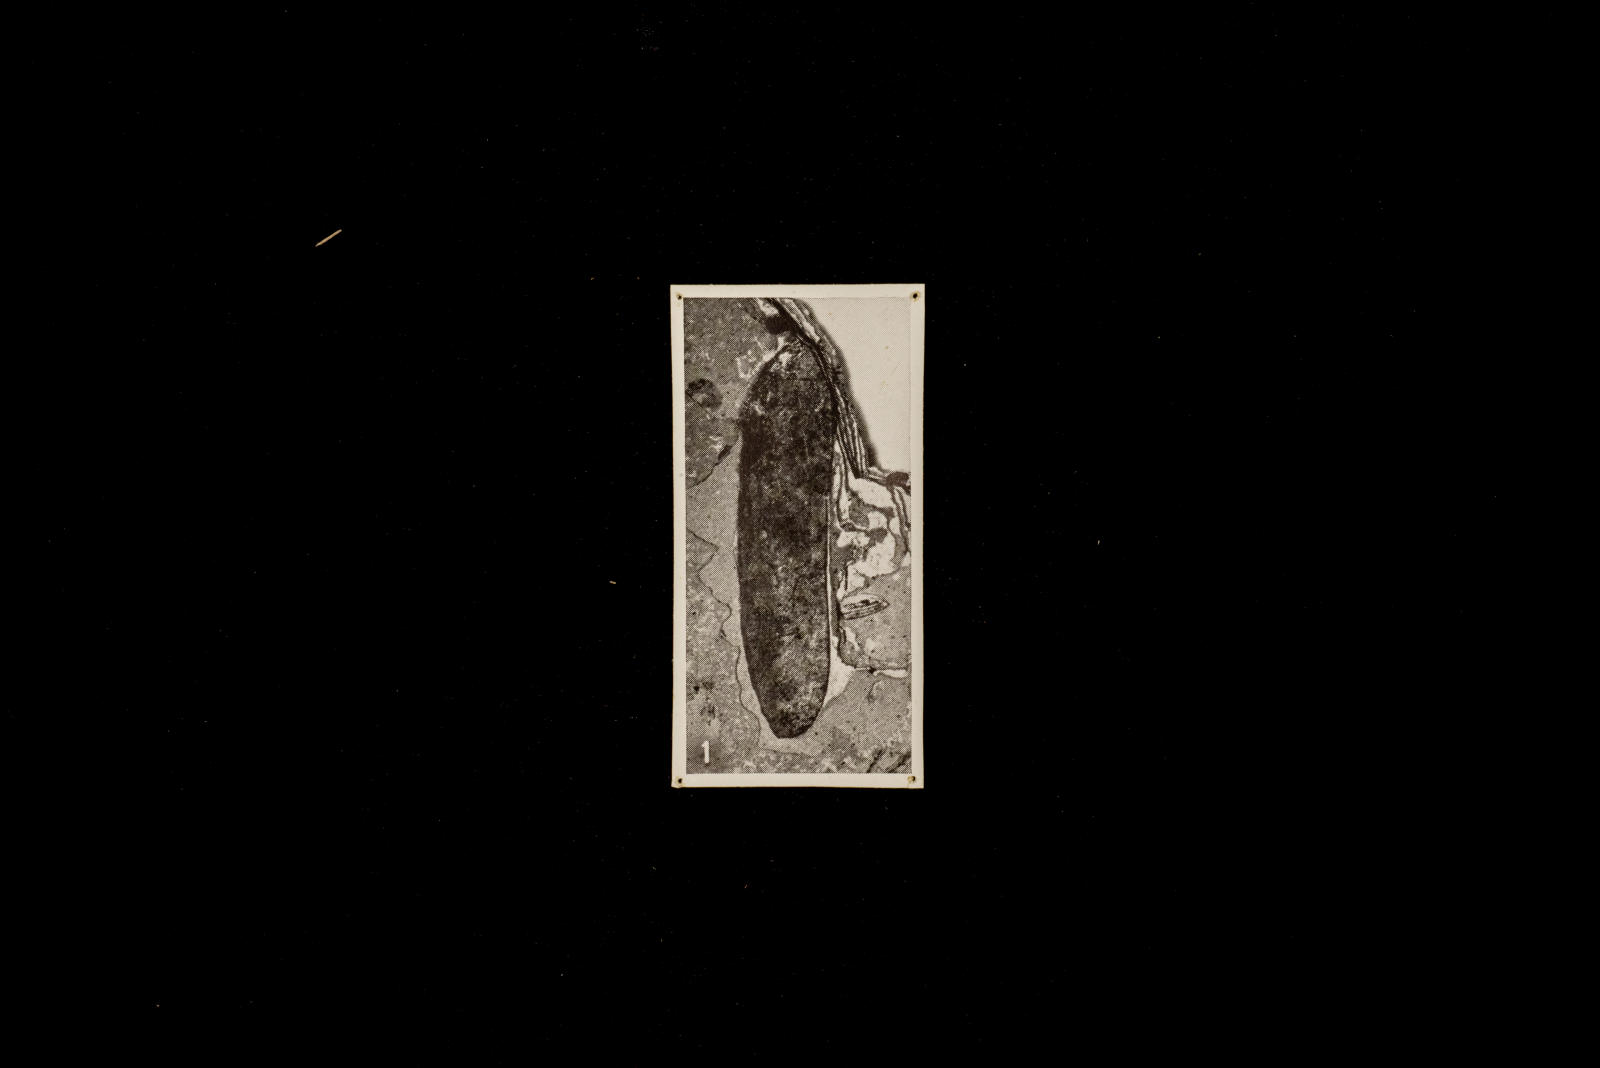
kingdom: Animalia
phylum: Arthropoda
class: Insecta
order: Coleoptera
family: Cerambycidae
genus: Leptura
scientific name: Leptura longipennis
